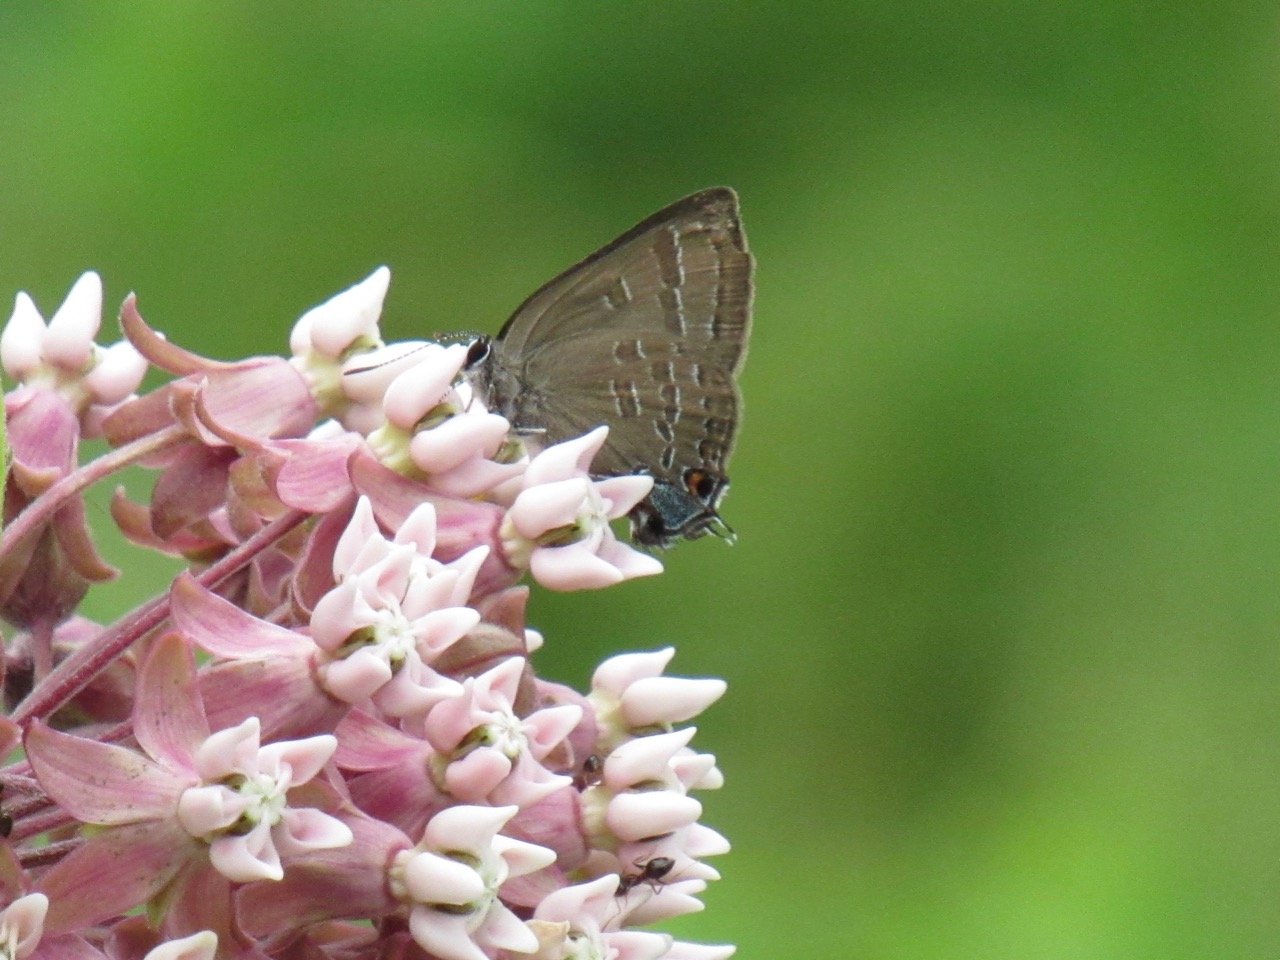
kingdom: Animalia
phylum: Arthropoda
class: Insecta
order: Lepidoptera
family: Lycaenidae
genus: Satyrium
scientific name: Satyrium calanus
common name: Banded Hairstreak
